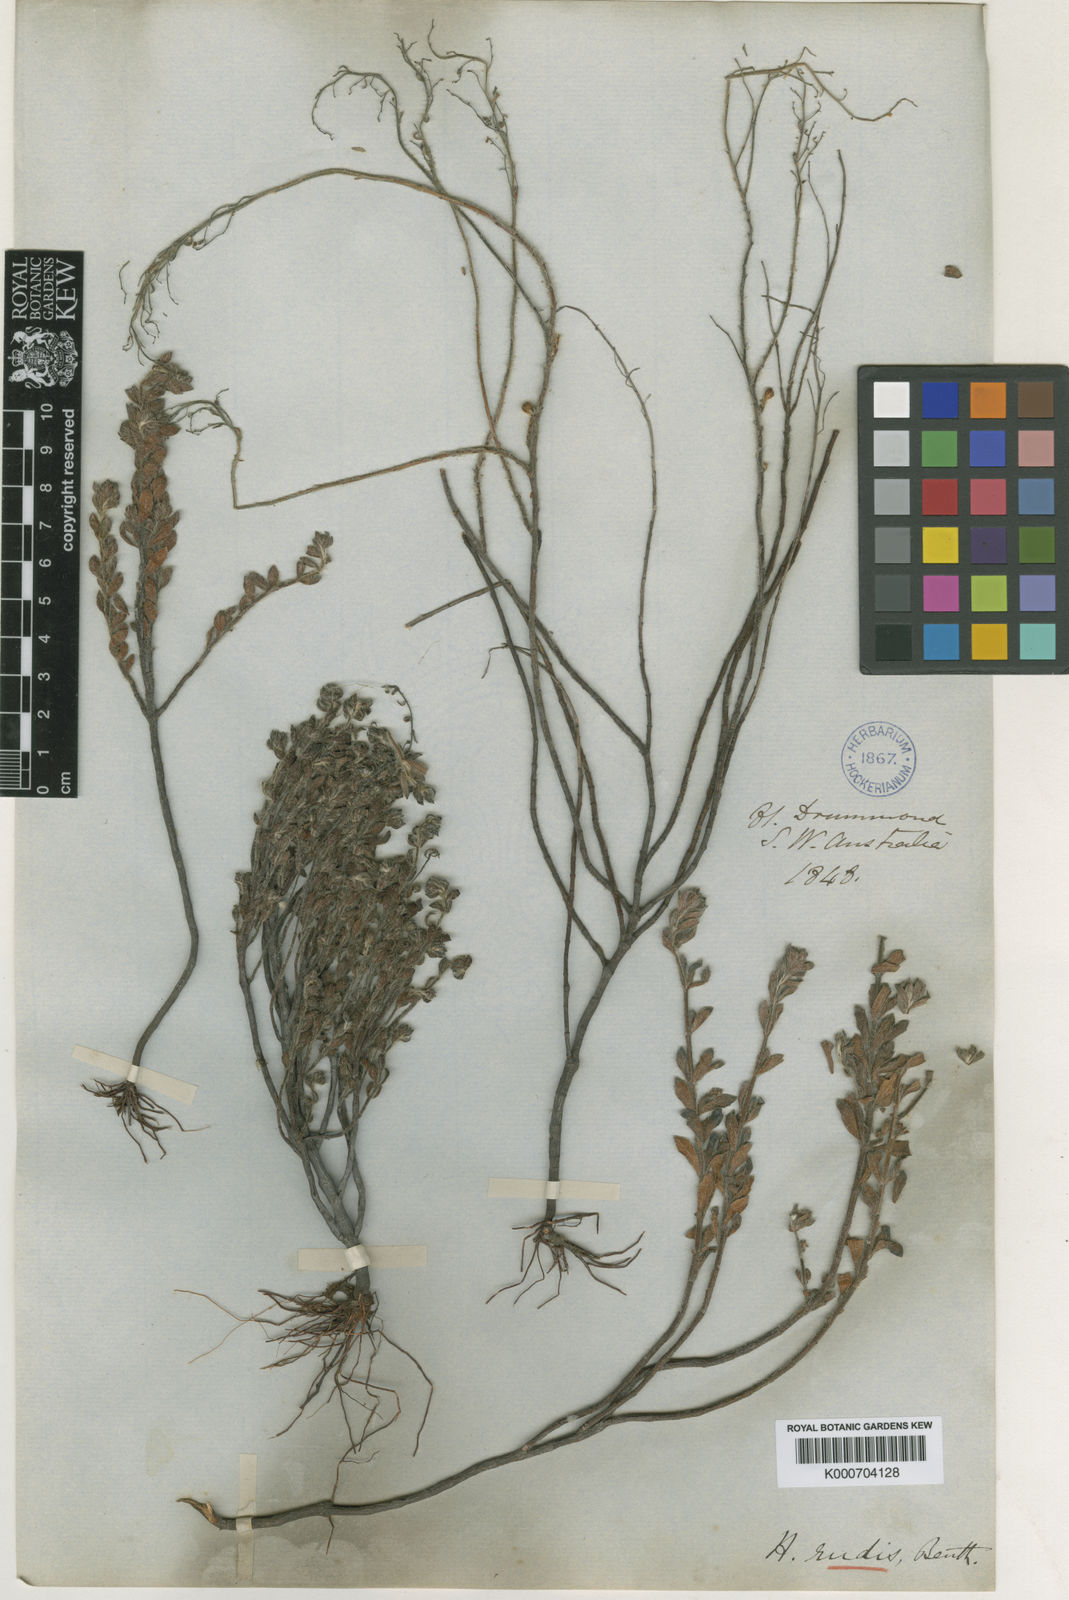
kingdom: Plantae
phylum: Tracheophyta
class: Magnoliopsida
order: Saxifragales
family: Haloragaceae
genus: Gonocarpus
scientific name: Gonocarpus rudis
